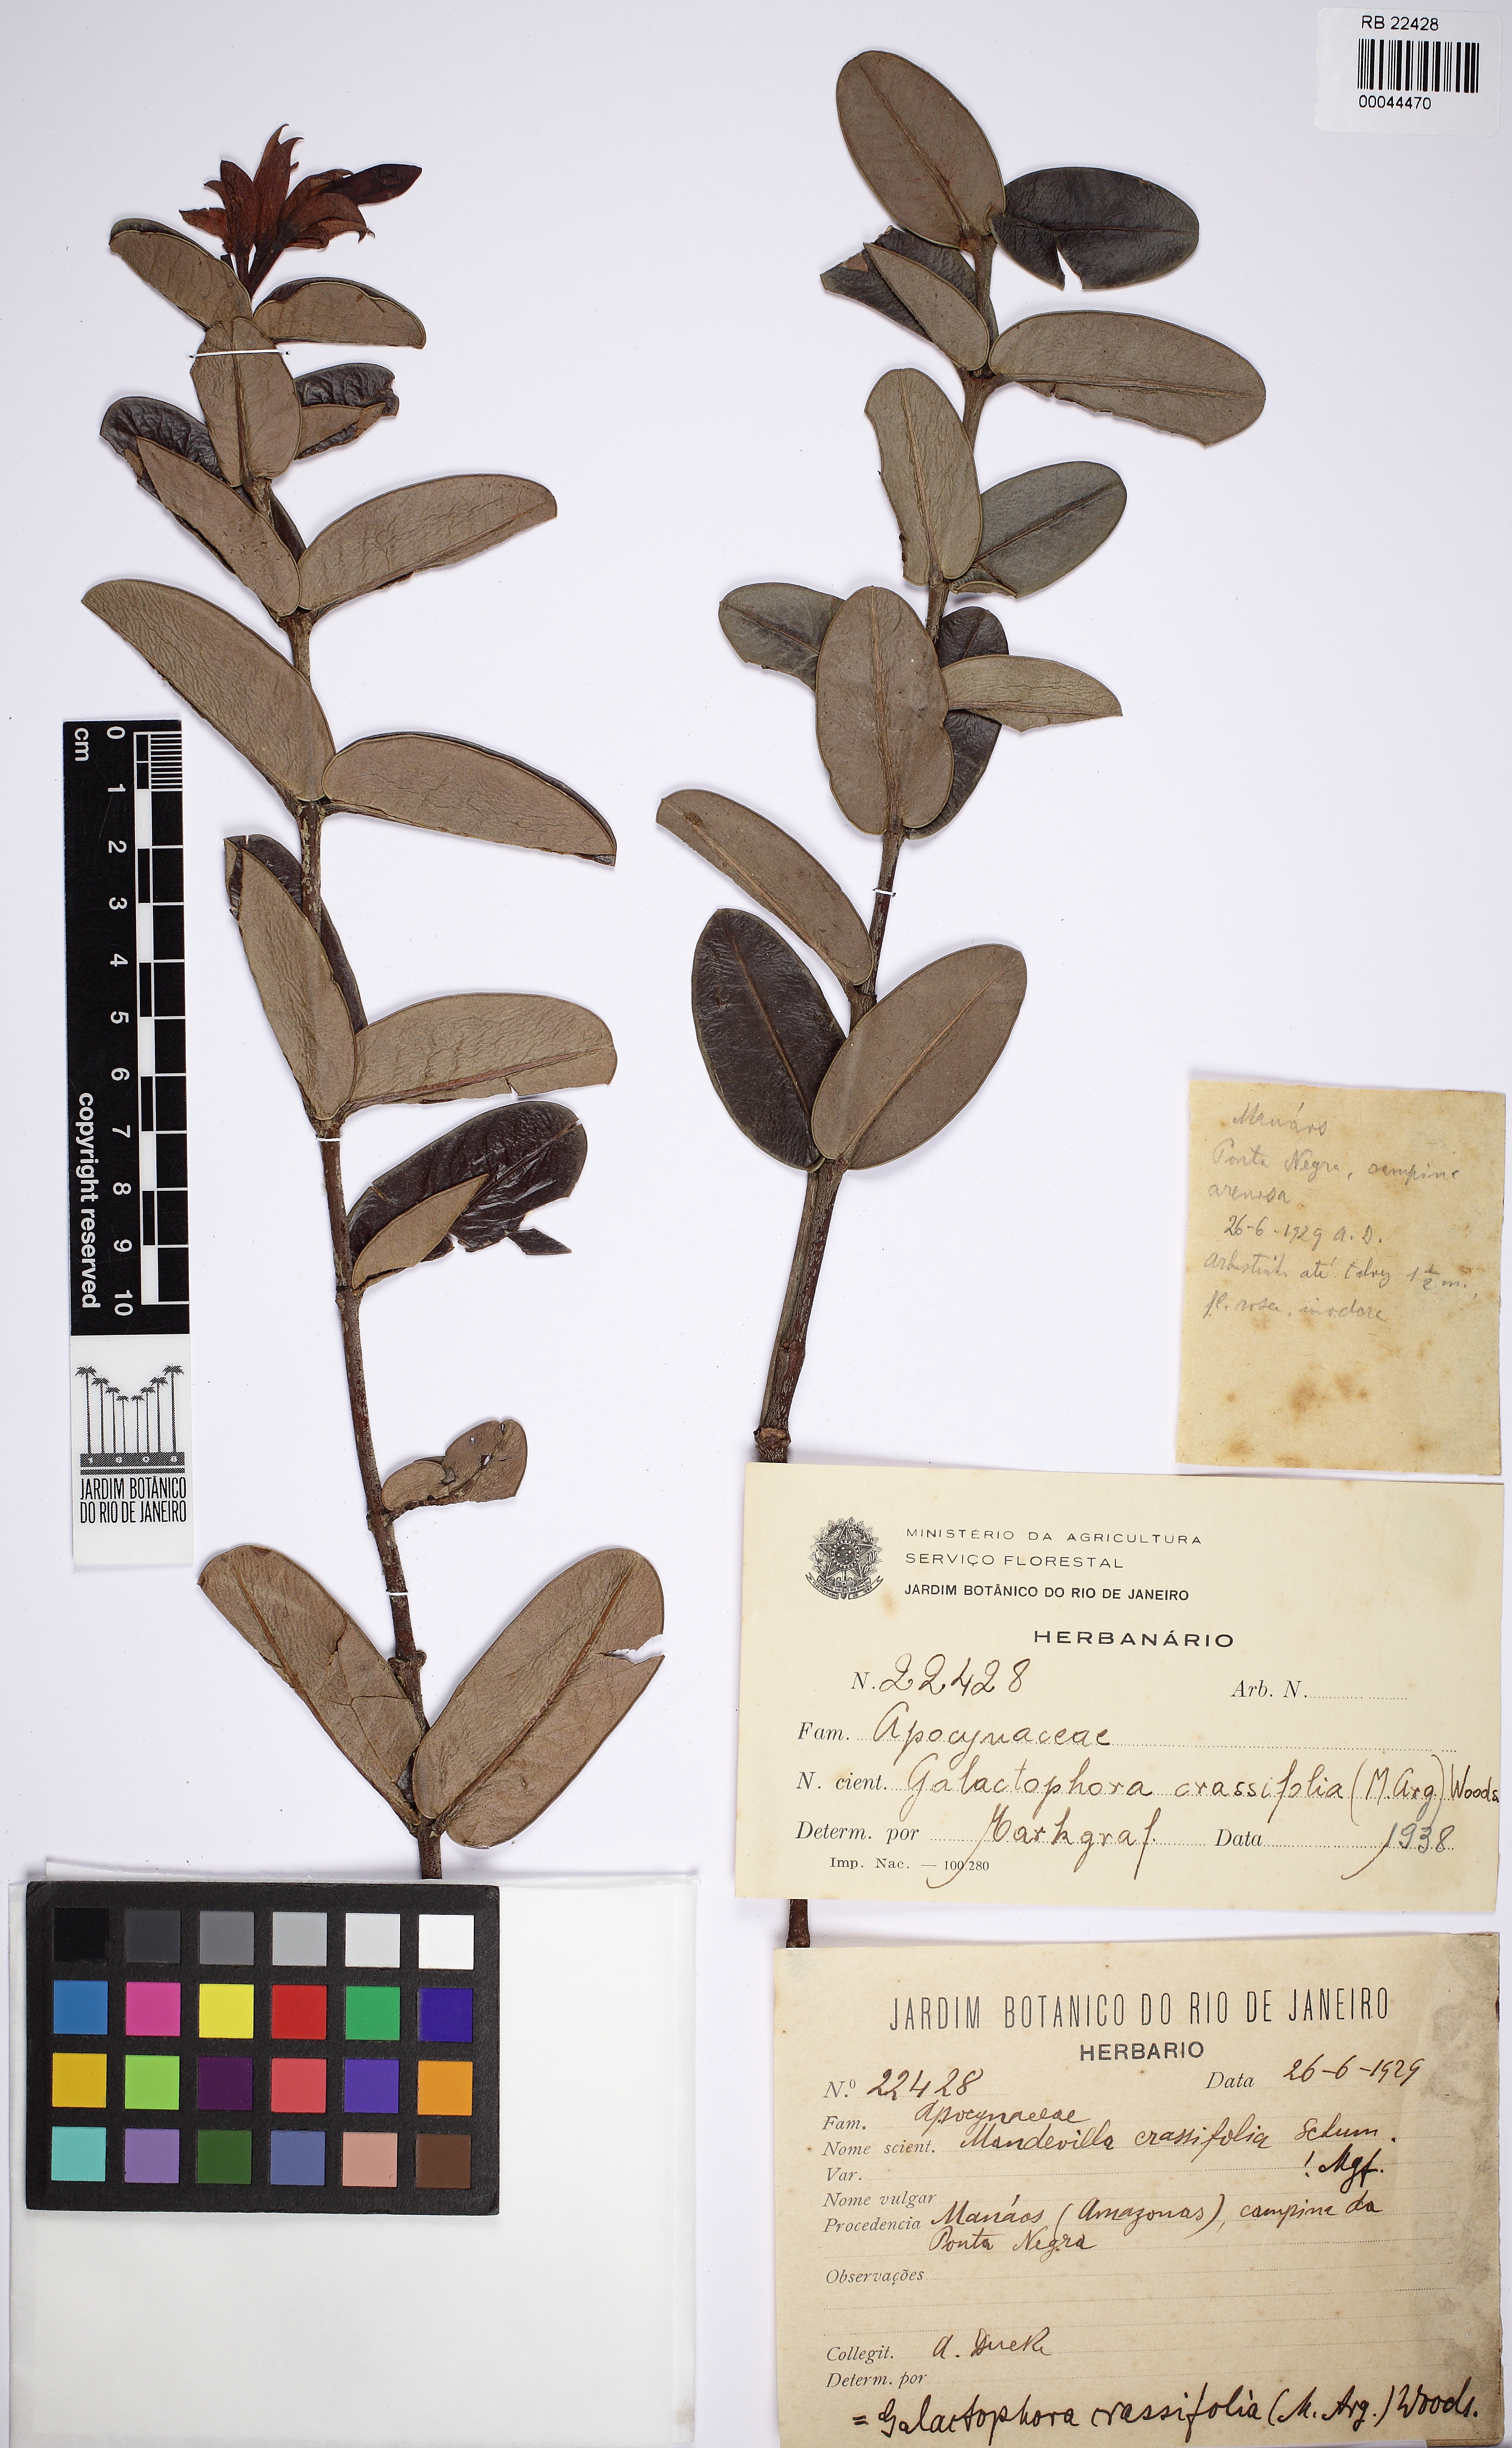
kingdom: Plantae
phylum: Tracheophyta
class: Magnoliopsida
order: Gentianales
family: Apocynaceae
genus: Galactophora
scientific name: Galactophora crassifolia
